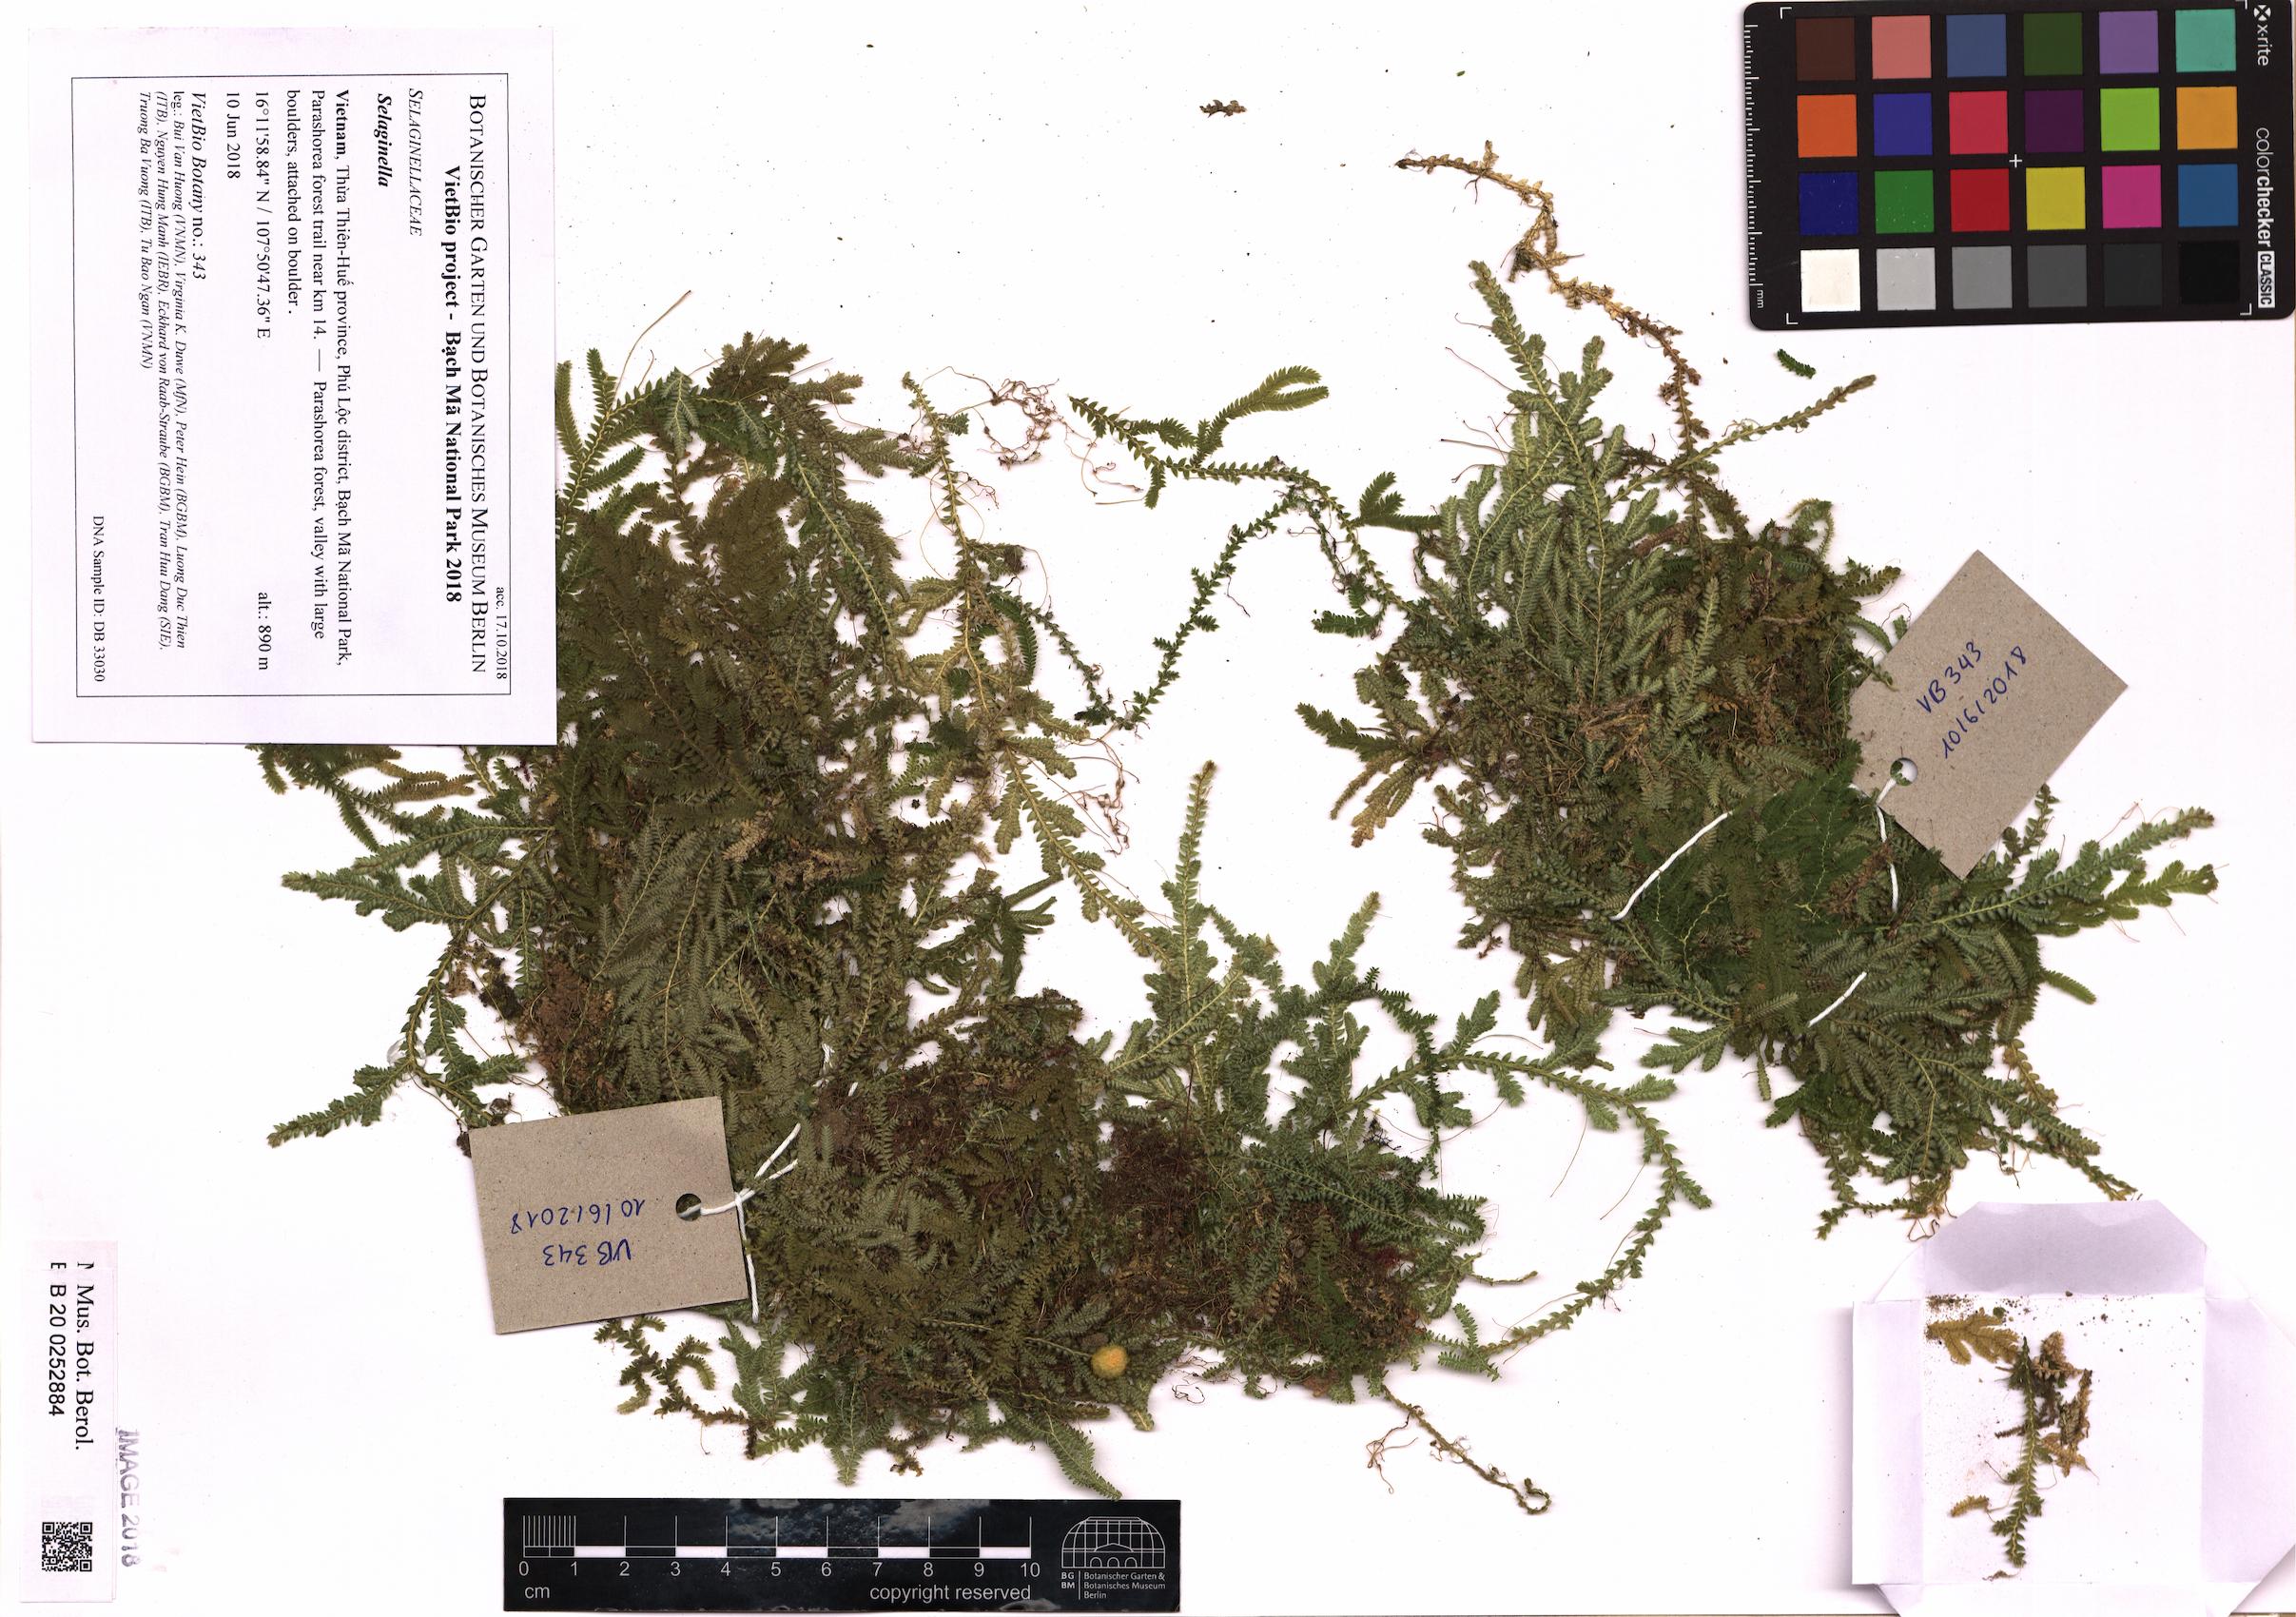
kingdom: Plantae
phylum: Tracheophyta
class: Lycopodiopsida
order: Selaginellales
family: Selaginellaceae
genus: Selaginella
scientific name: Selaginella
